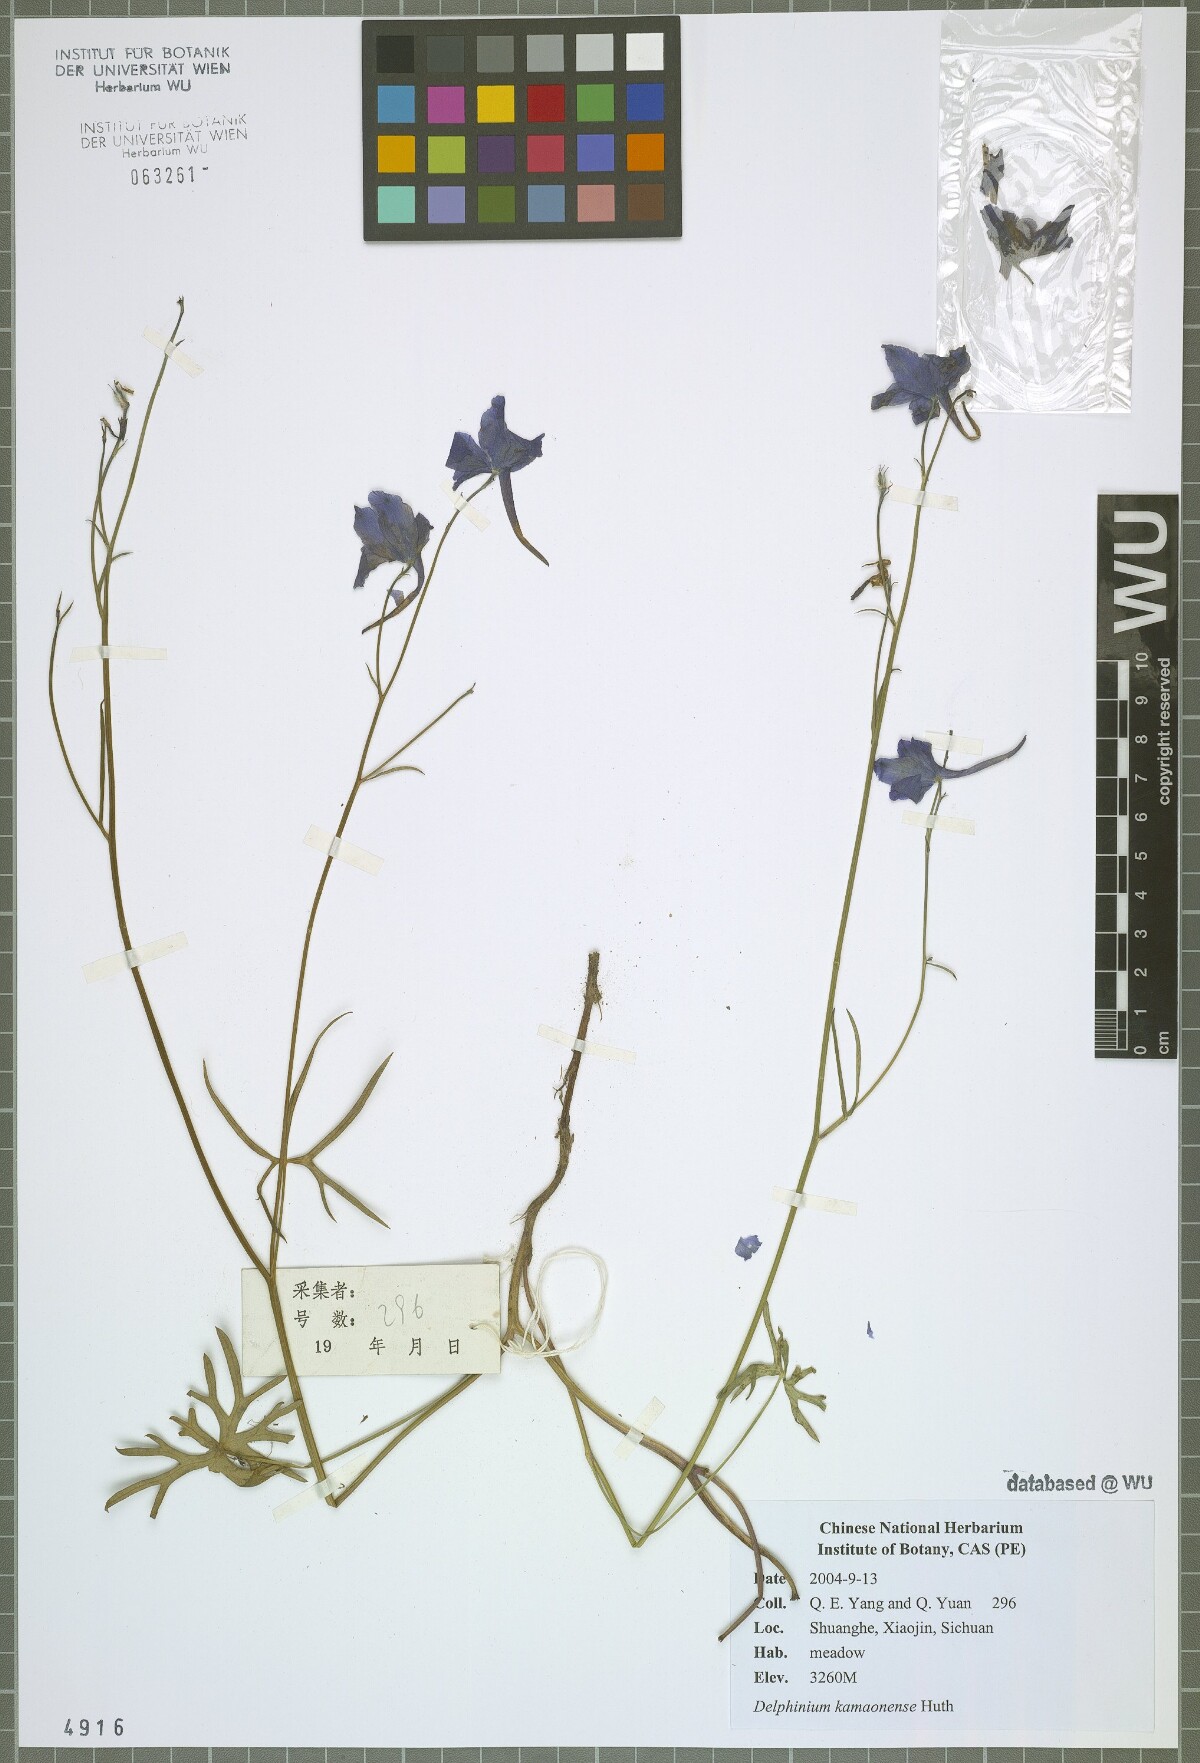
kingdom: Plantae
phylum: Tracheophyta
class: Magnoliopsida
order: Ranunculales
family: Ranunculaceae
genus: Delphinium
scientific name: Delphinium kamaonense
